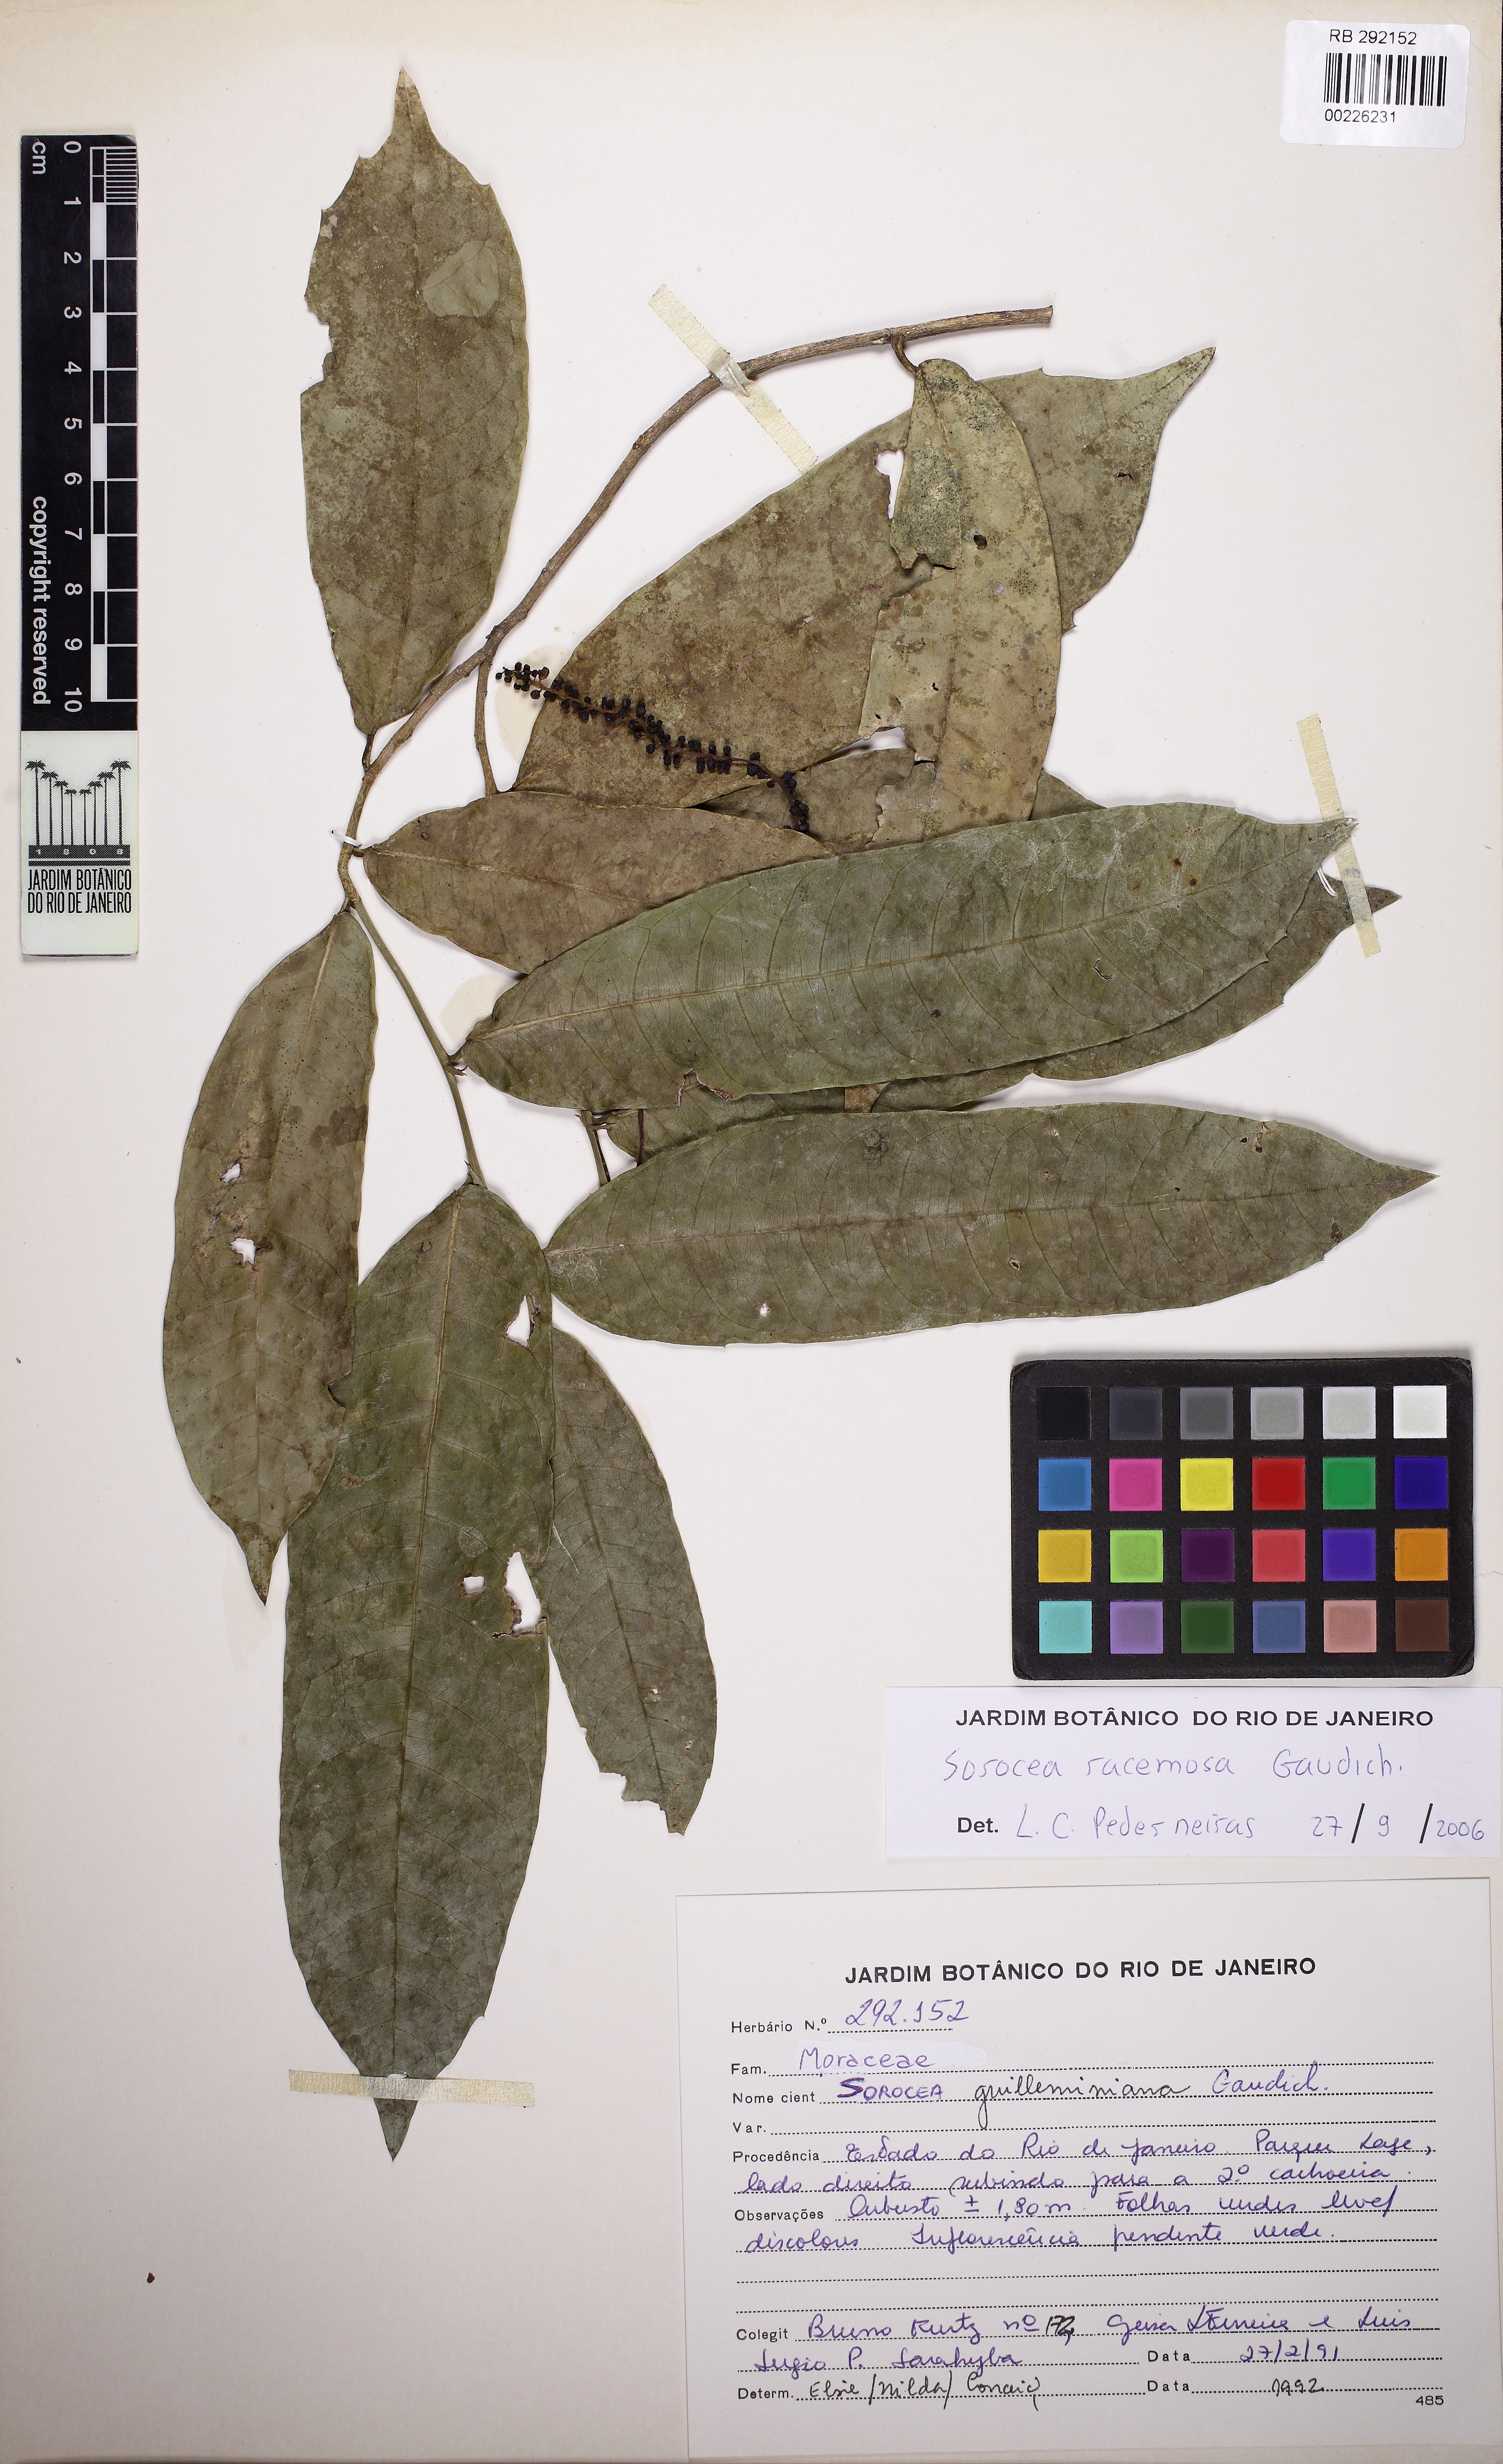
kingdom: Plantae
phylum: Tracheophyta
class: Magnoliopsida
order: Rosales
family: Moraceae
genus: Sorocea
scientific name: Sorocea hilarii
